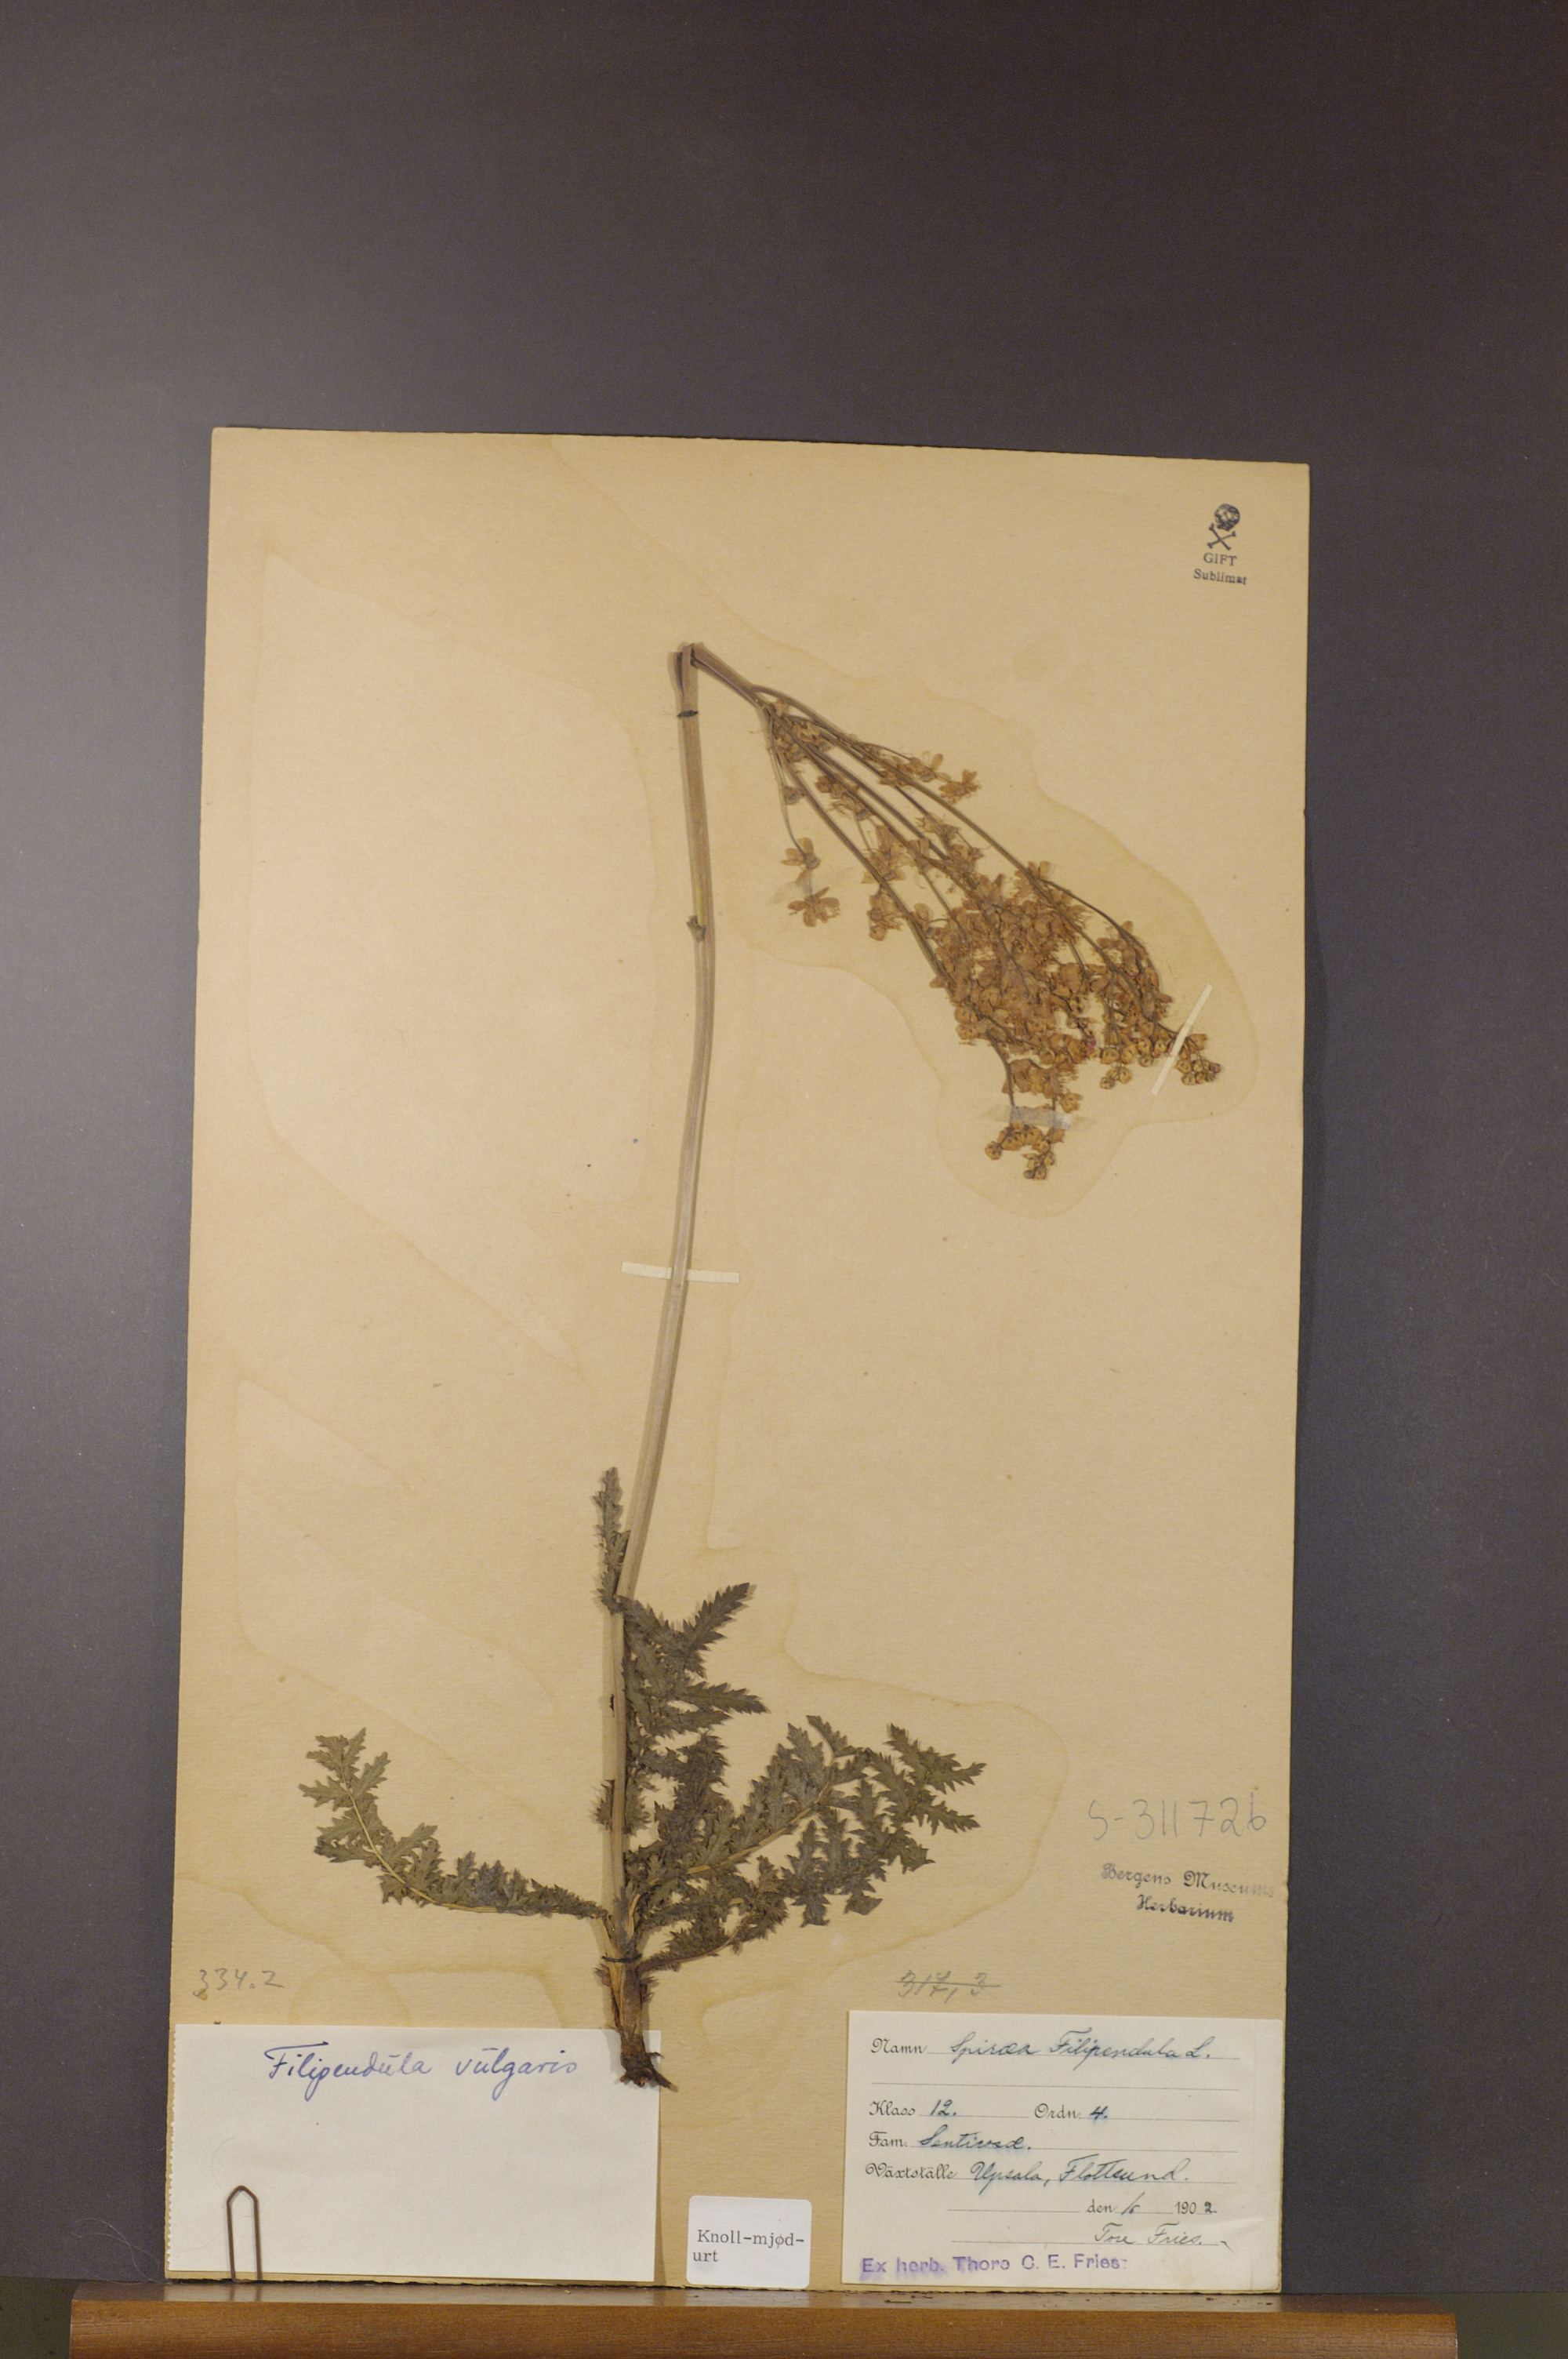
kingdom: Plantae
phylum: Tracheophyta
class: Magnoliopsida
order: Rosales
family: Rosaceae
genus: Filipendula
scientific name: Filipendula vulgaris
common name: Dropwort
